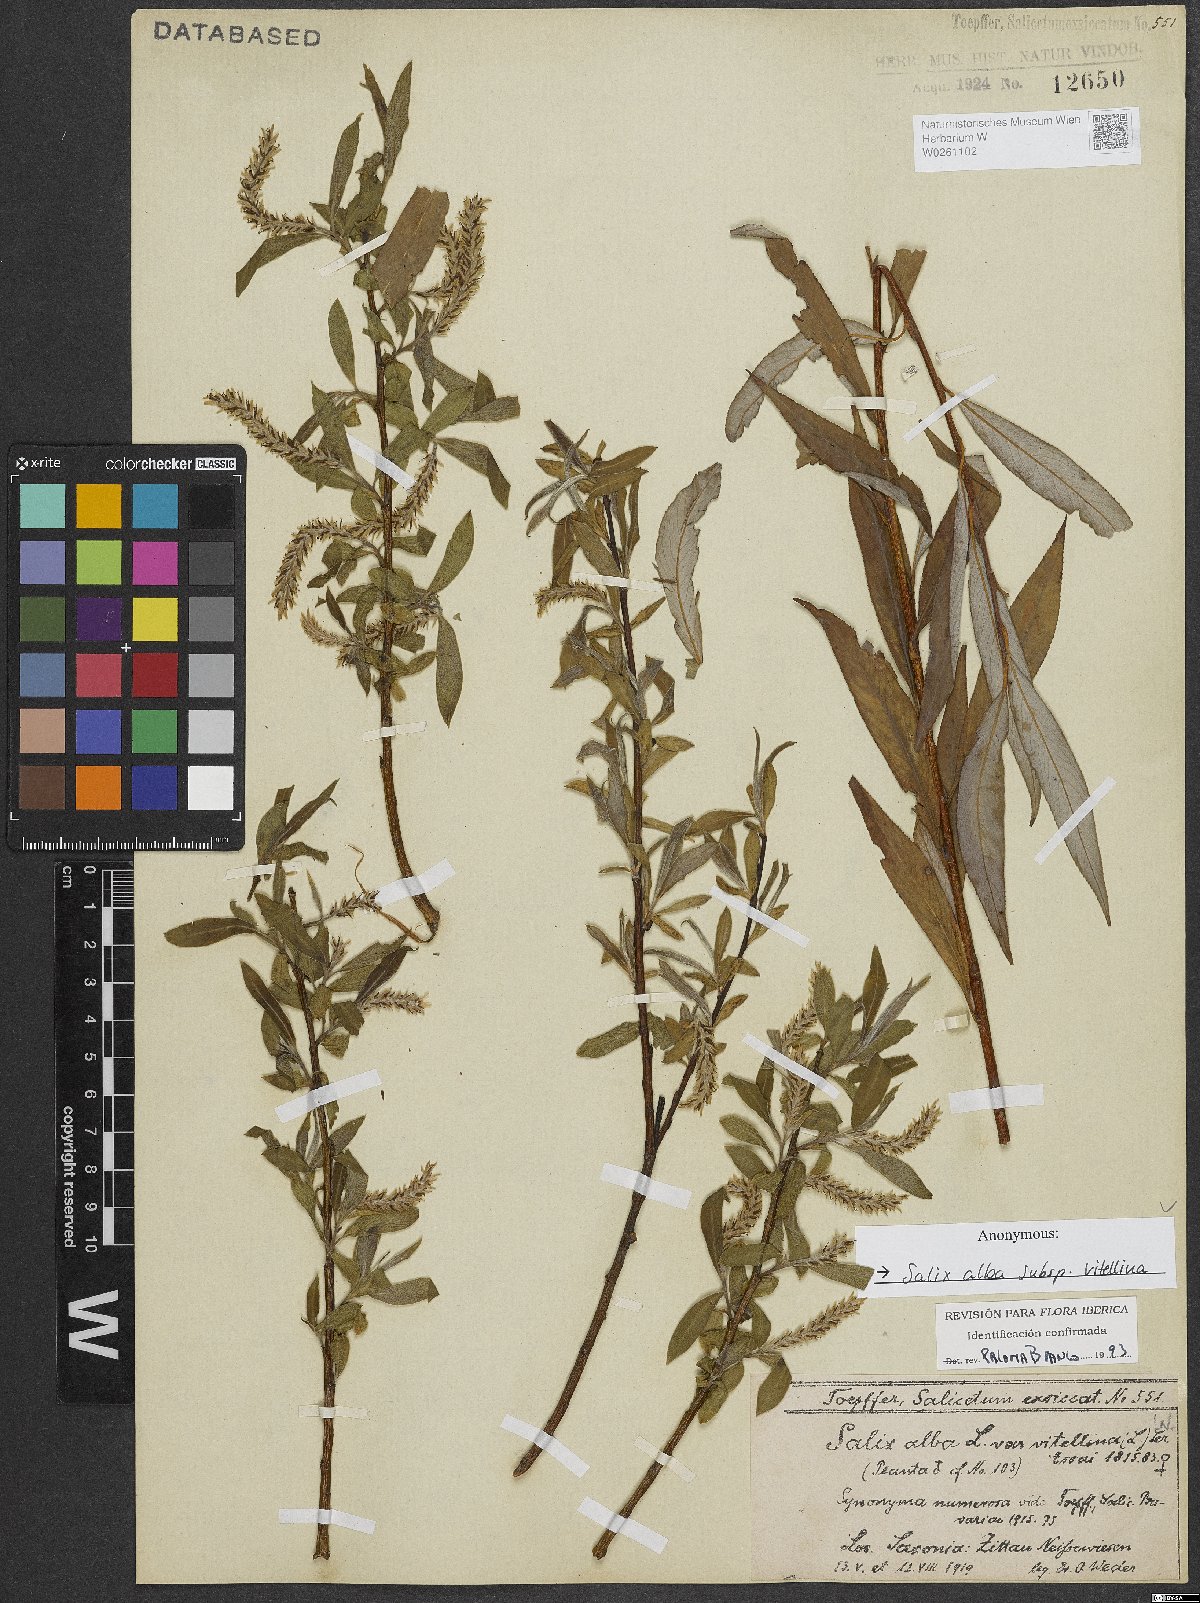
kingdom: Plantae
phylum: Tracheophyta
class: Magnoliopsida
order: Malpighiales
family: Salicaceae
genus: Salix
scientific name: Salix alba
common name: White willow
